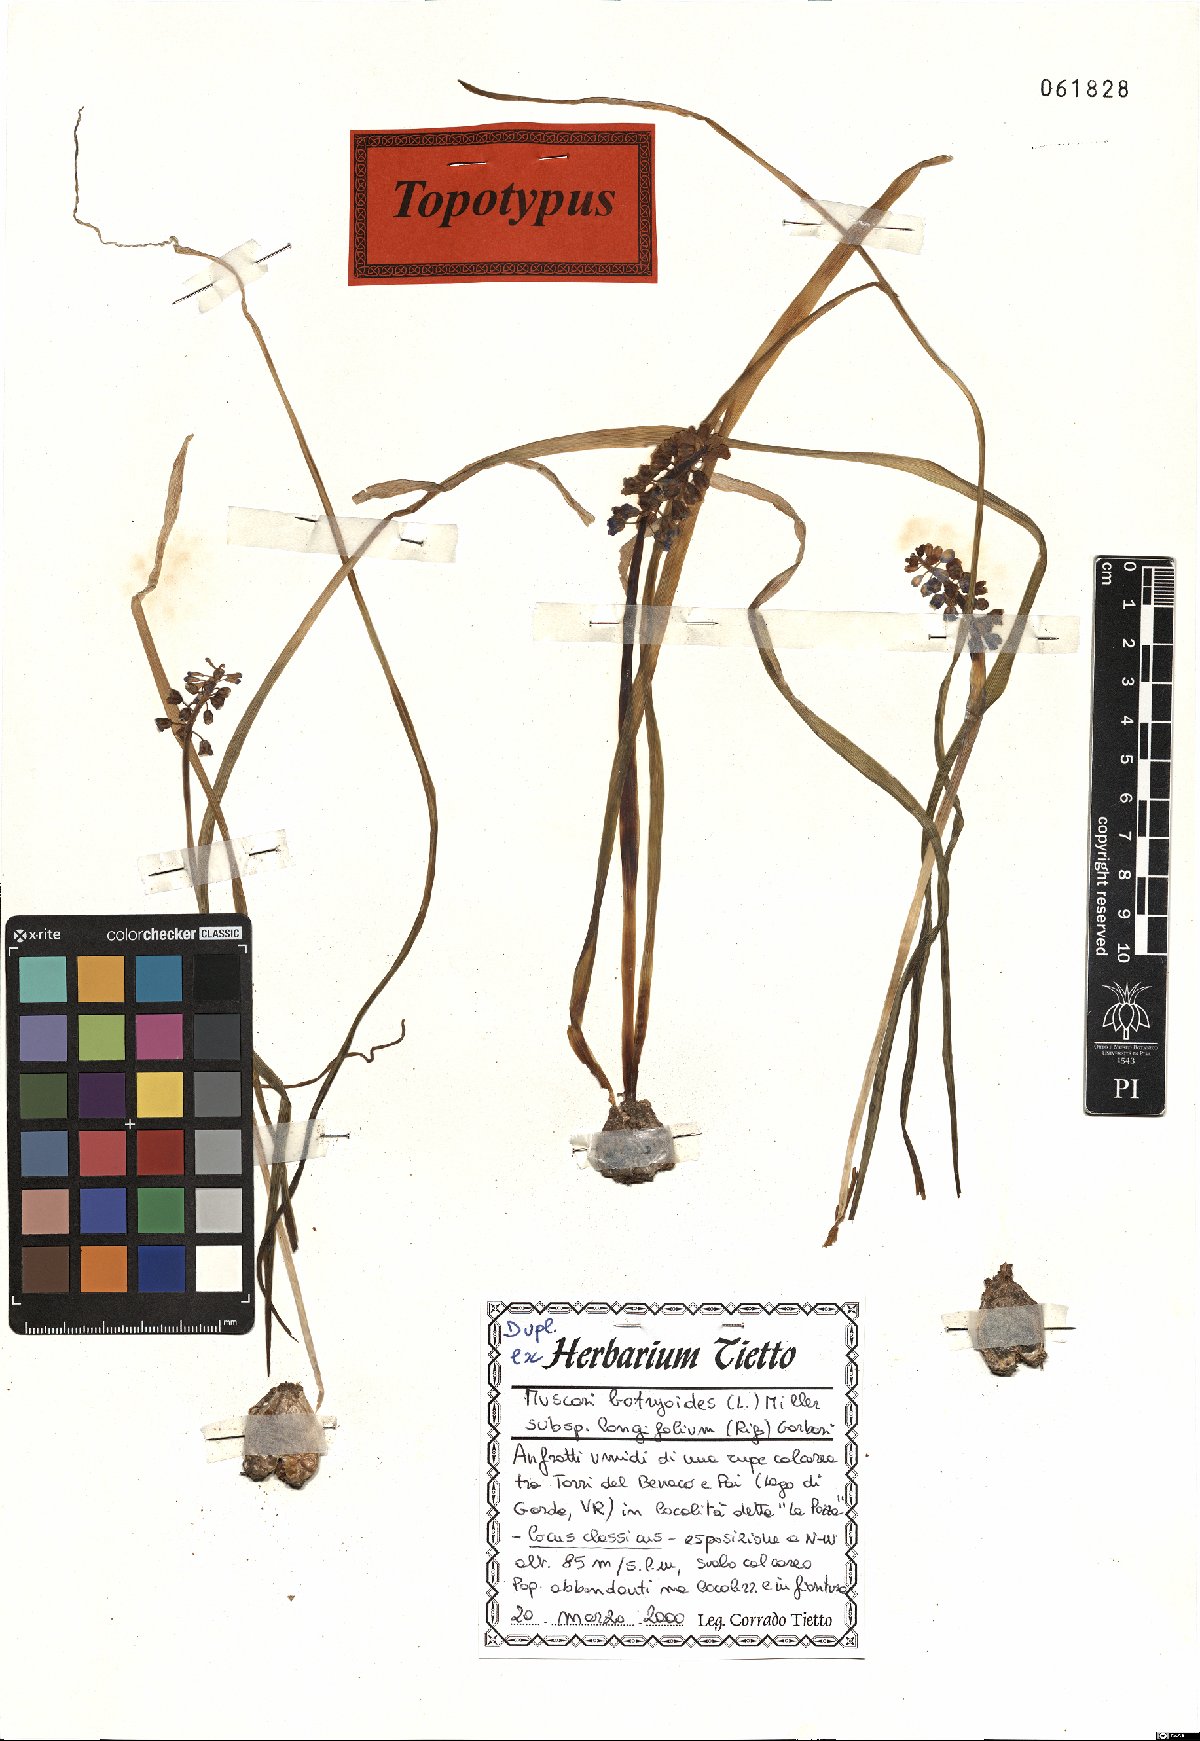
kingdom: Plantae
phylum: Tracheophyta
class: Liliopsida
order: Asparagales
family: Asparagaceae
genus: Muscari
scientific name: Muscari botryoides
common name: Compact grape-hyacinth
